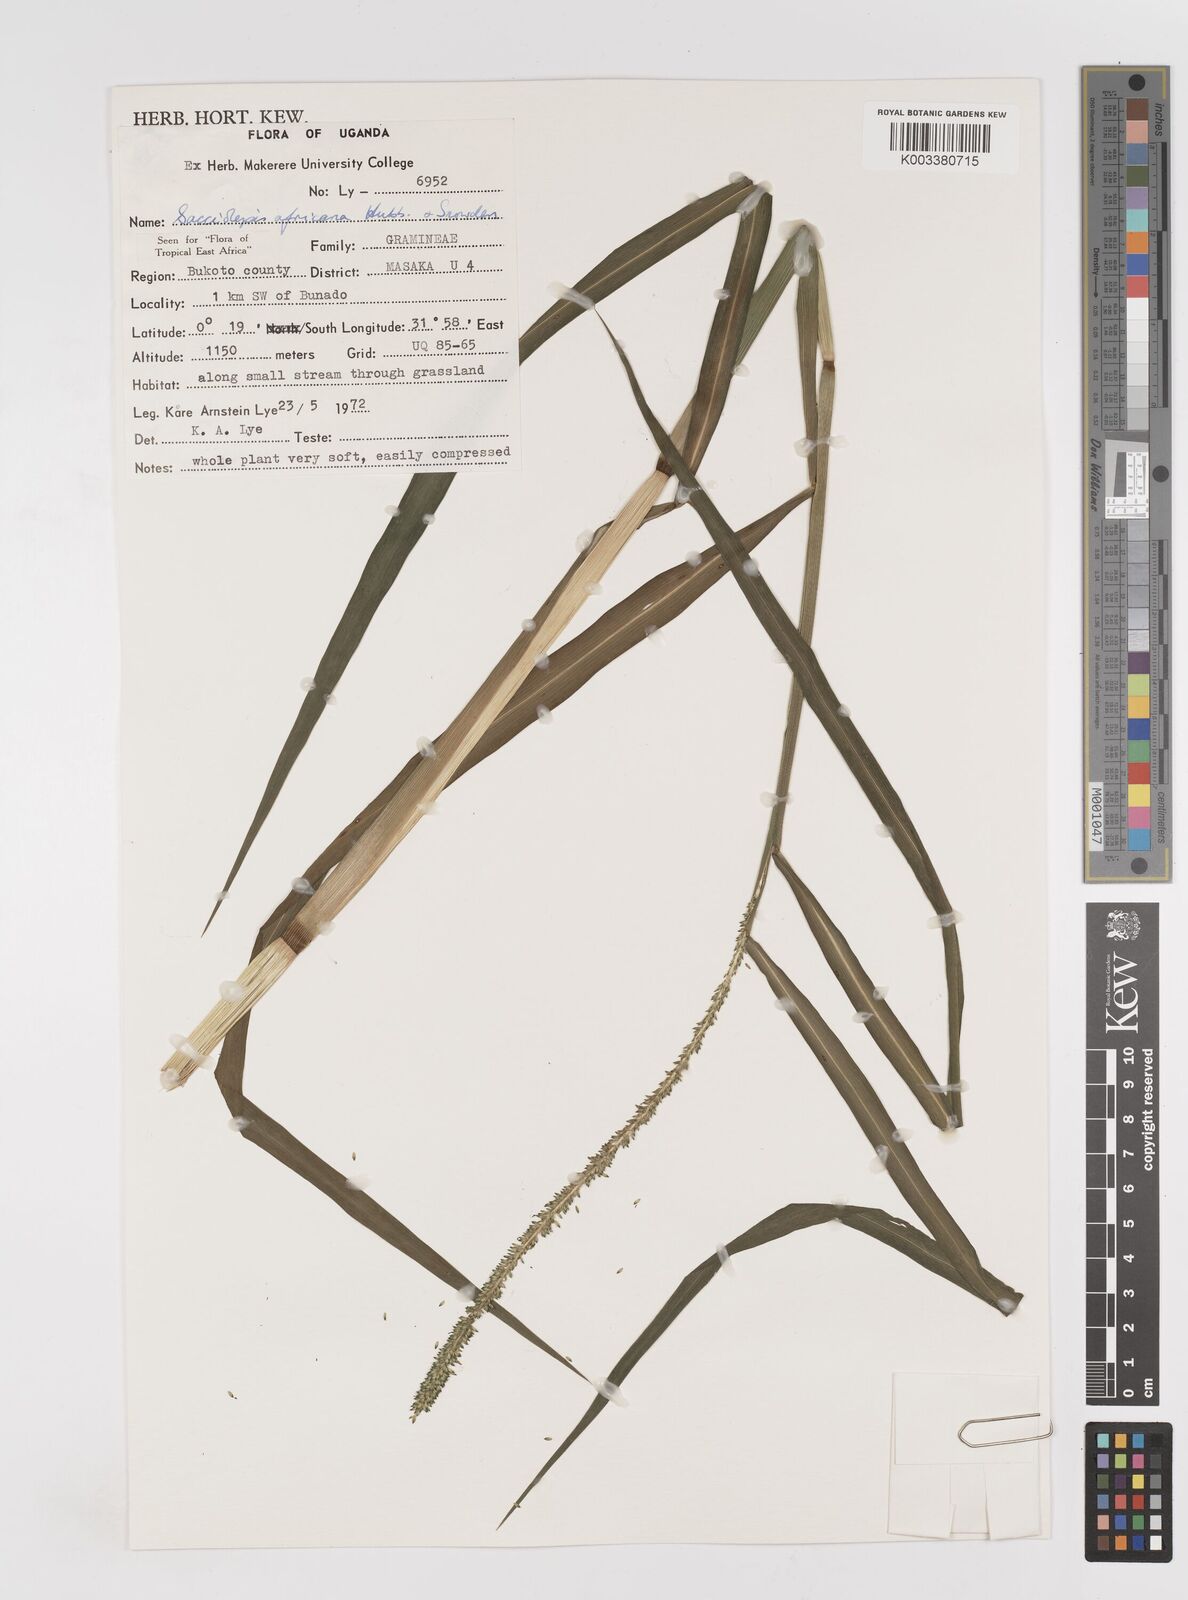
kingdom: Plantae
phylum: Tracheophyta
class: Liliopsida
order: Poales
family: Poaceae
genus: Sacciolepis
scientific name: Sacciolepis africana
